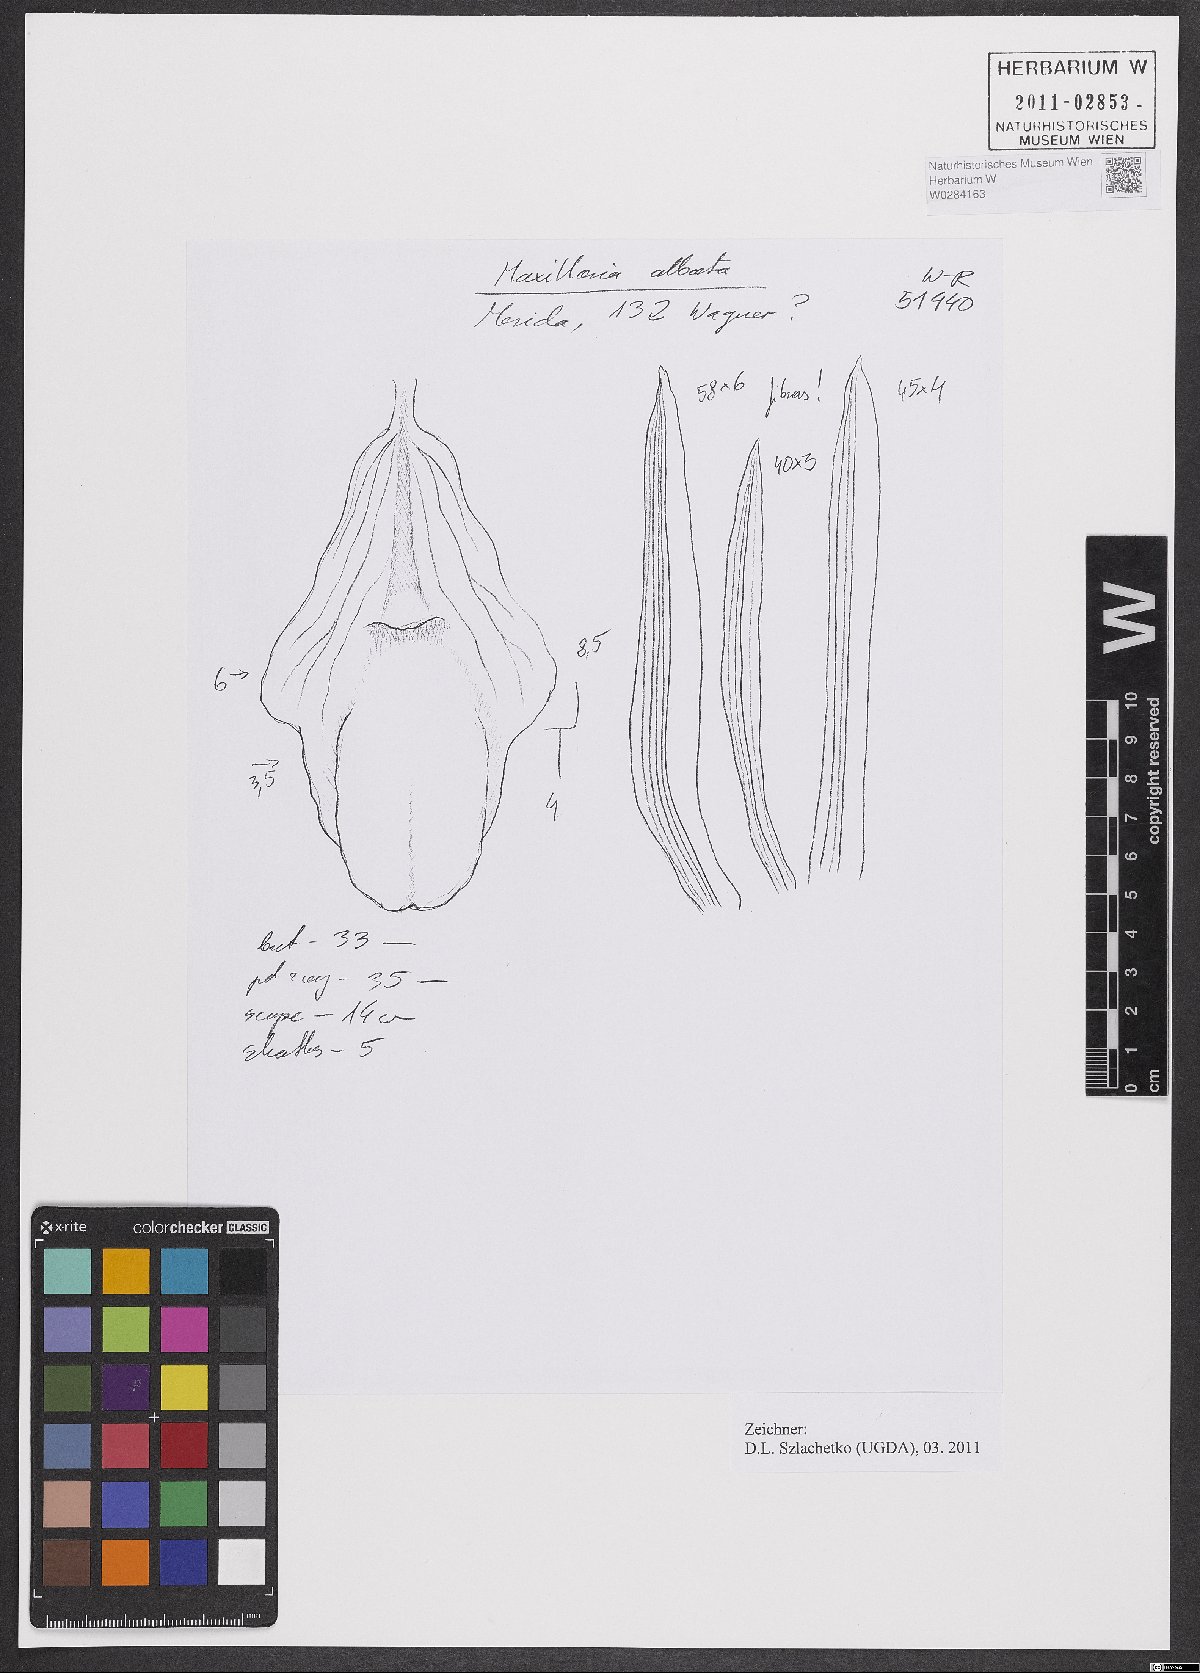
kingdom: Plantae
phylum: Tracheophyta
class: Liliopsida
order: Asparagales
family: Orchidaceae
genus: Maxillaria
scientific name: Maxillaria albata
